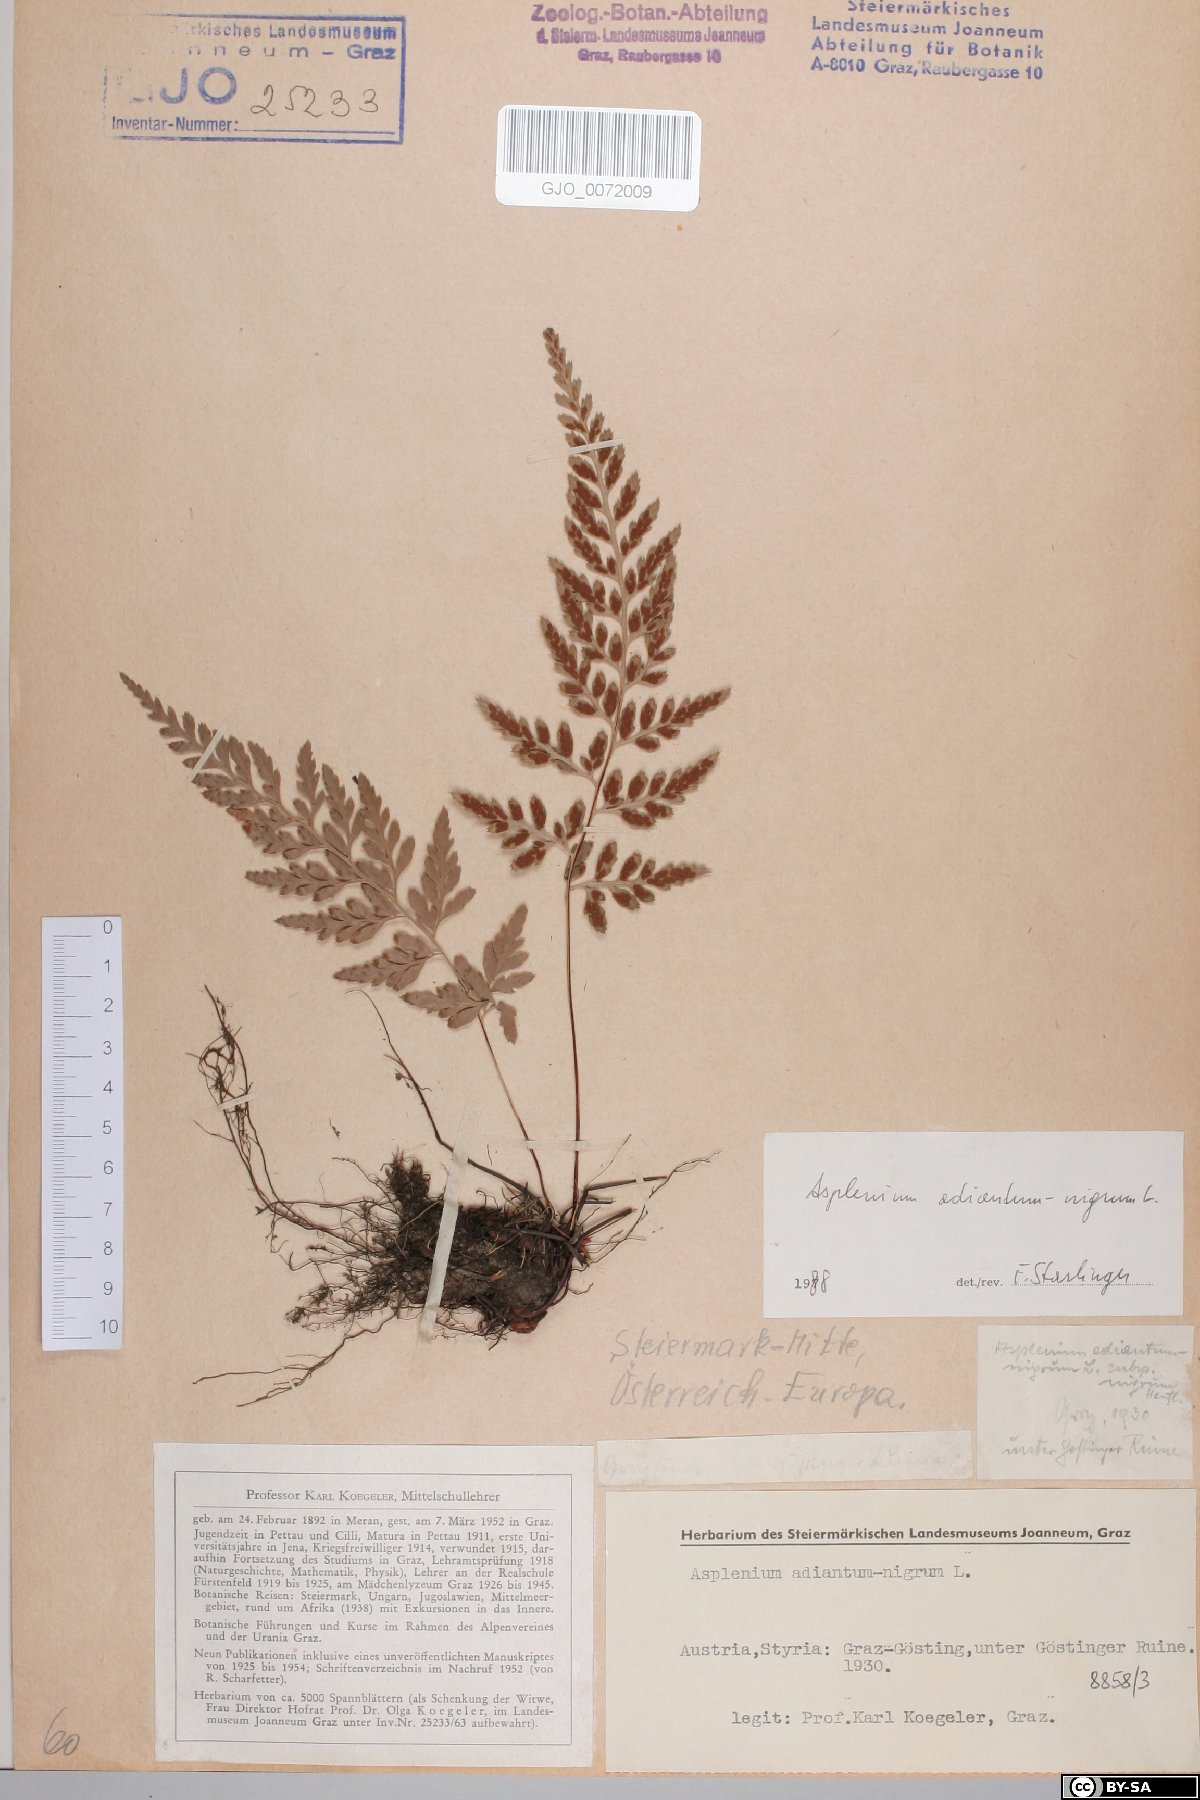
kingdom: Plantae
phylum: Tracheophyta
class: Polypodiopsida
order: Polypodiales
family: Aspleniaceae
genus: Asplenium
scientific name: Asplenium adiantum-nigrum
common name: Black spleenwort
